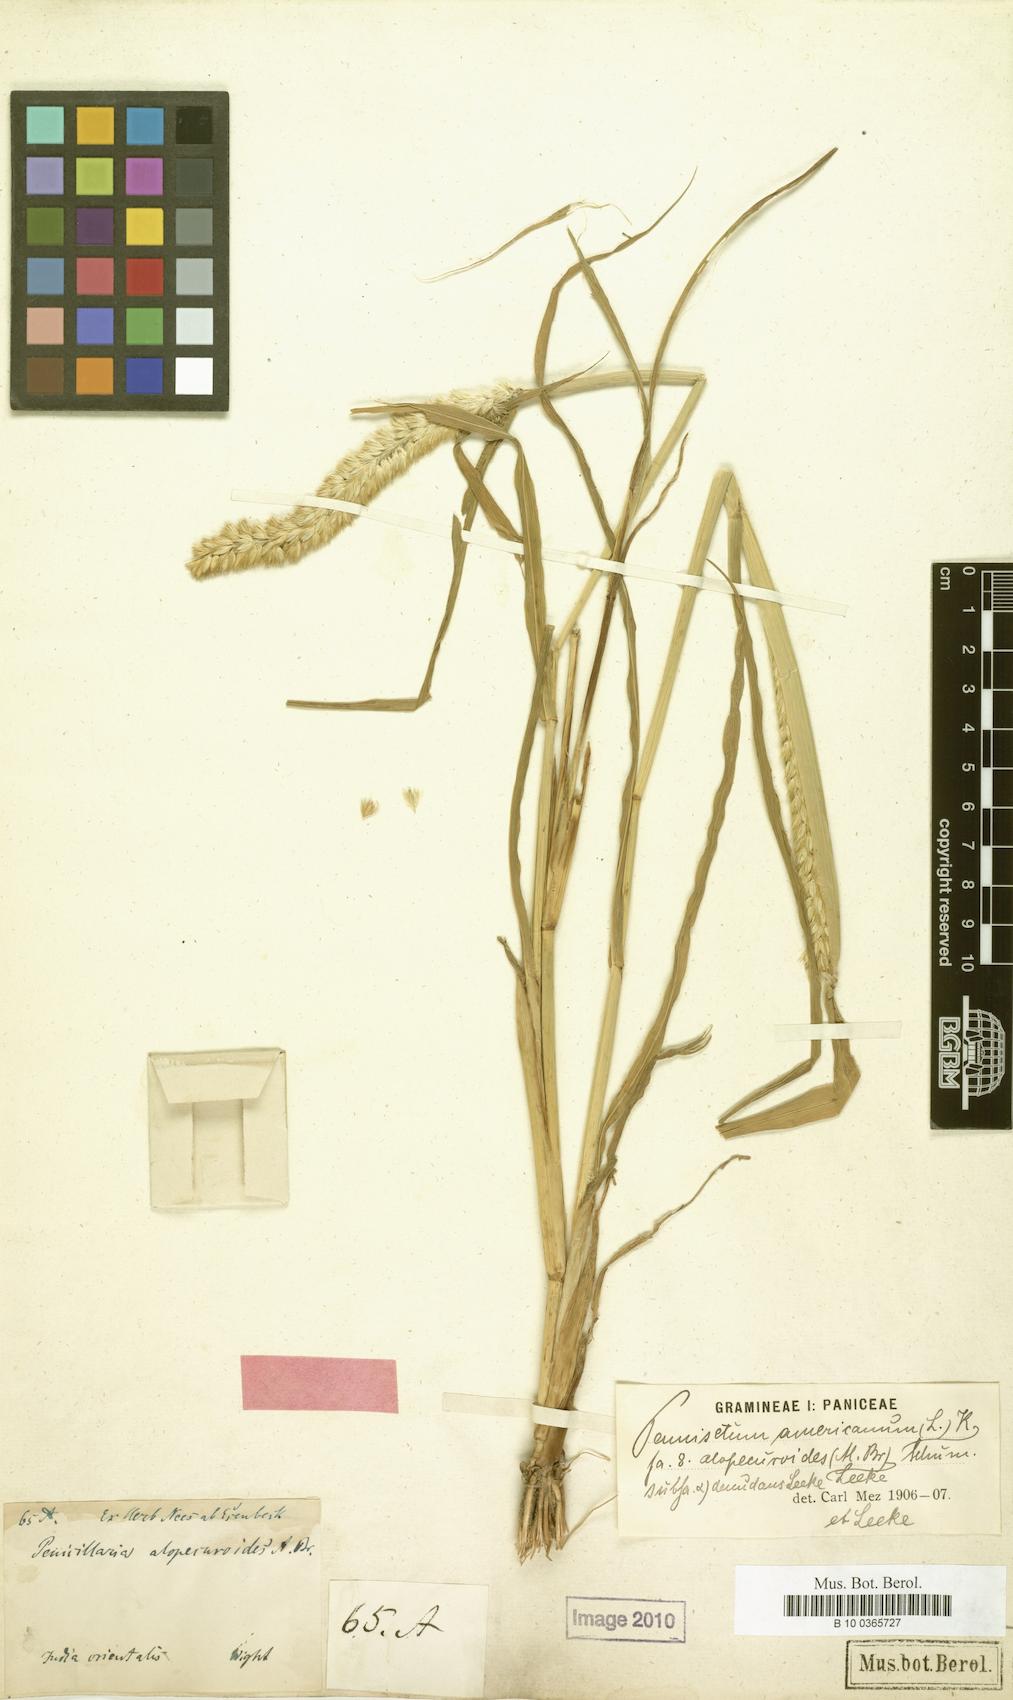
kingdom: Plantae
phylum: Tracheophyta
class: Liliopsida
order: Poales
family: Poaceae
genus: Cenchrus
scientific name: Cenchrus americanus
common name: Pearl millet
